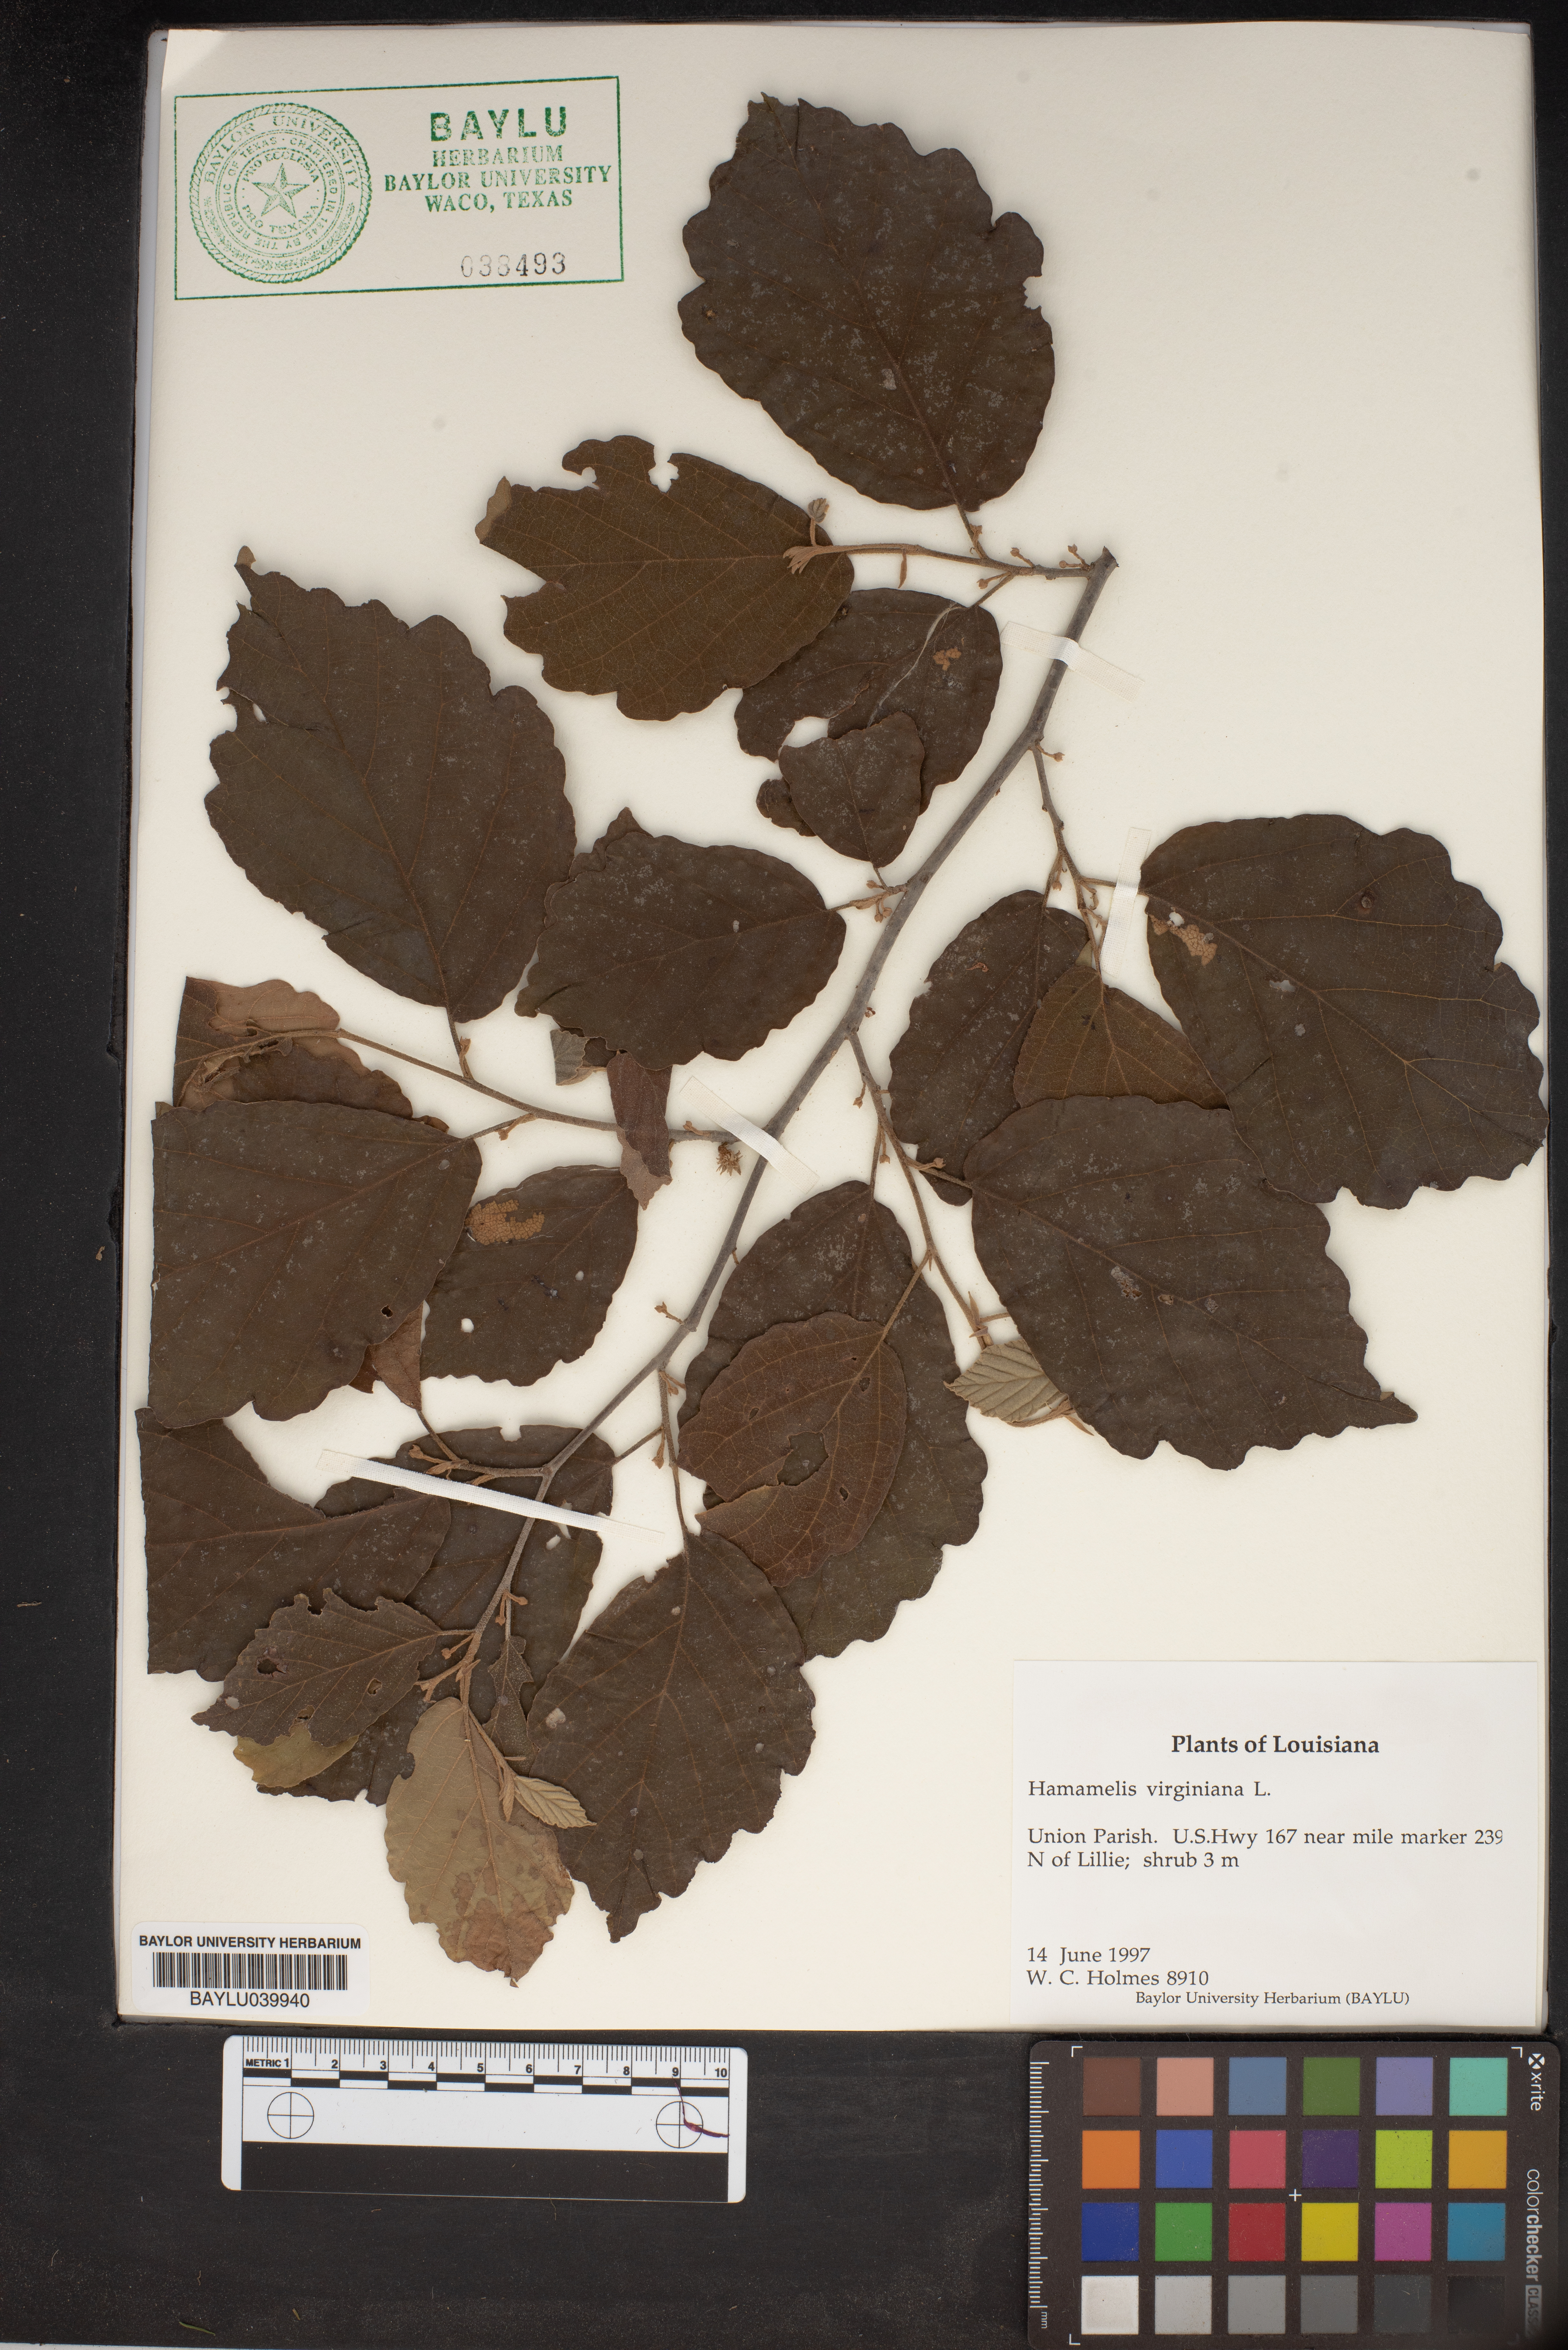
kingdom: Plantae
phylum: Tracheophyta
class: Magnoliopsida
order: Saxifragales
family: Hamamelidaceae
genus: Hamamelis
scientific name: Hamamelis virginiana
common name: Witch-hazel
